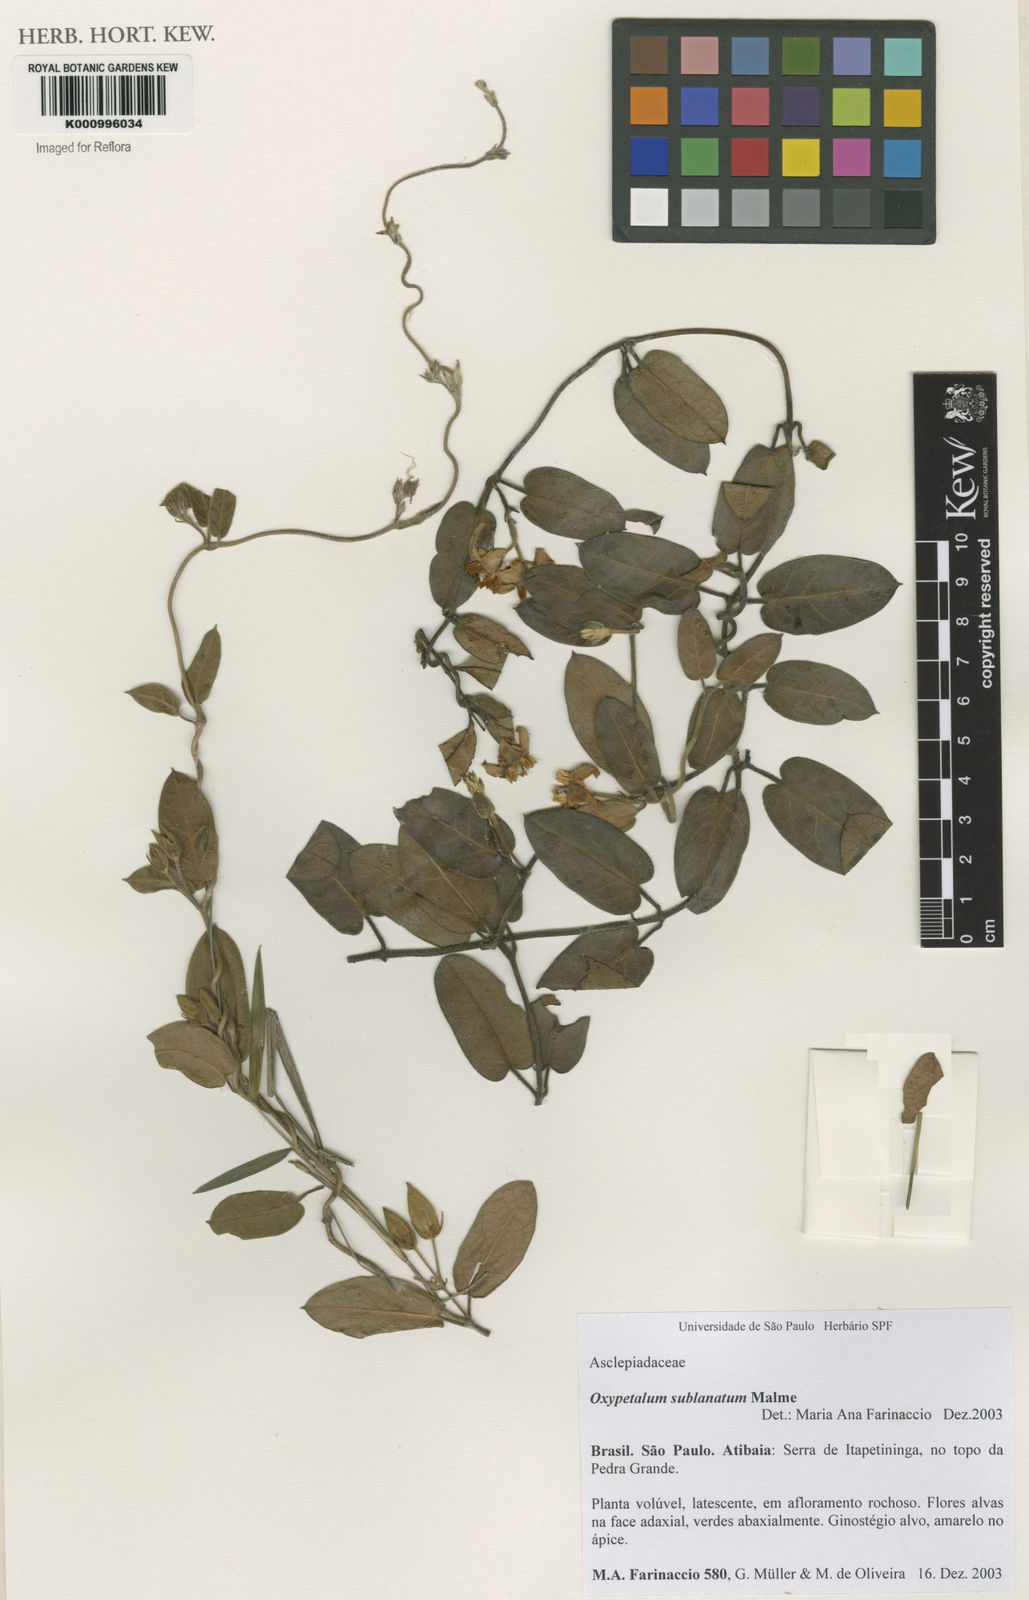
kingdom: Plantae
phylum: Tracheophyta
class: Magnoliopsida
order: Gentianales
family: Apocynaceae
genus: Oxypetalum
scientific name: Oxypetalum sublanatum
